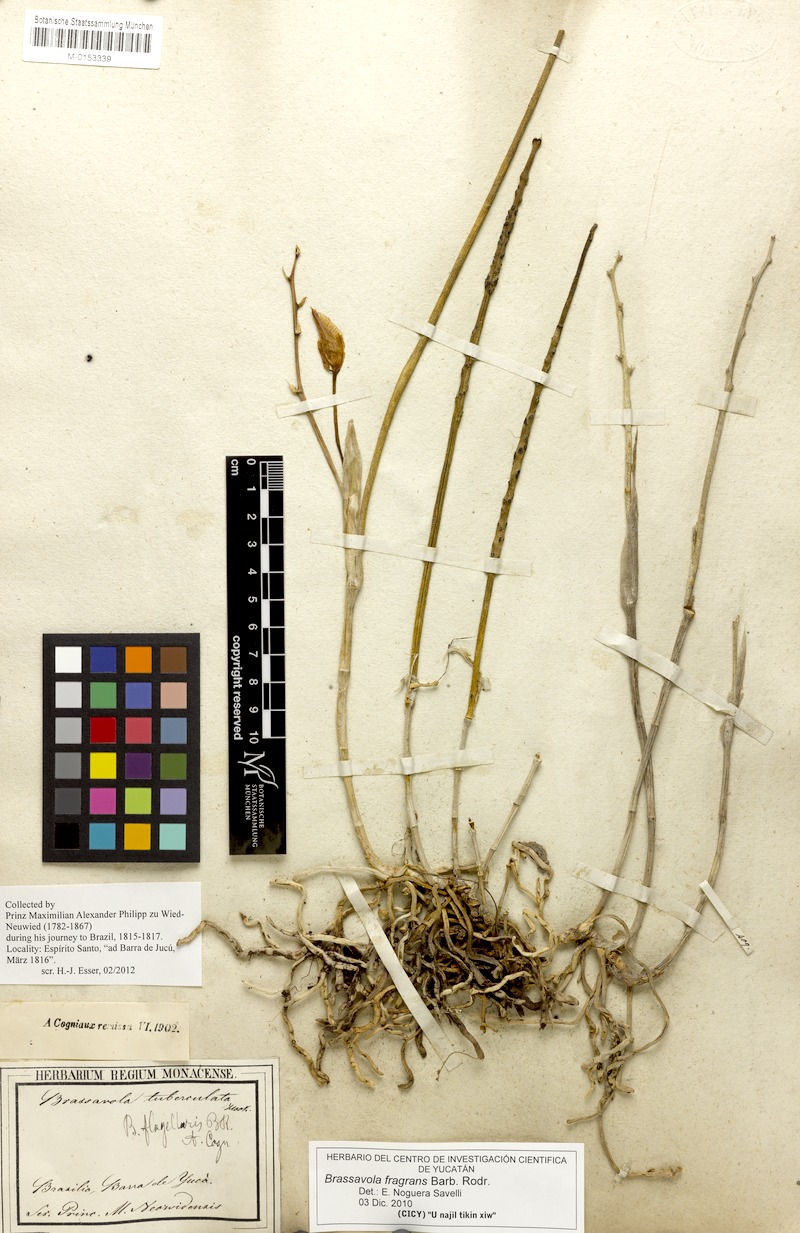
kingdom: Plantae
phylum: Tracheophyta
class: Liliopsida
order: Asparagales
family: Orchidaceae
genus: Brassavola
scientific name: Brassavola flagellaris
